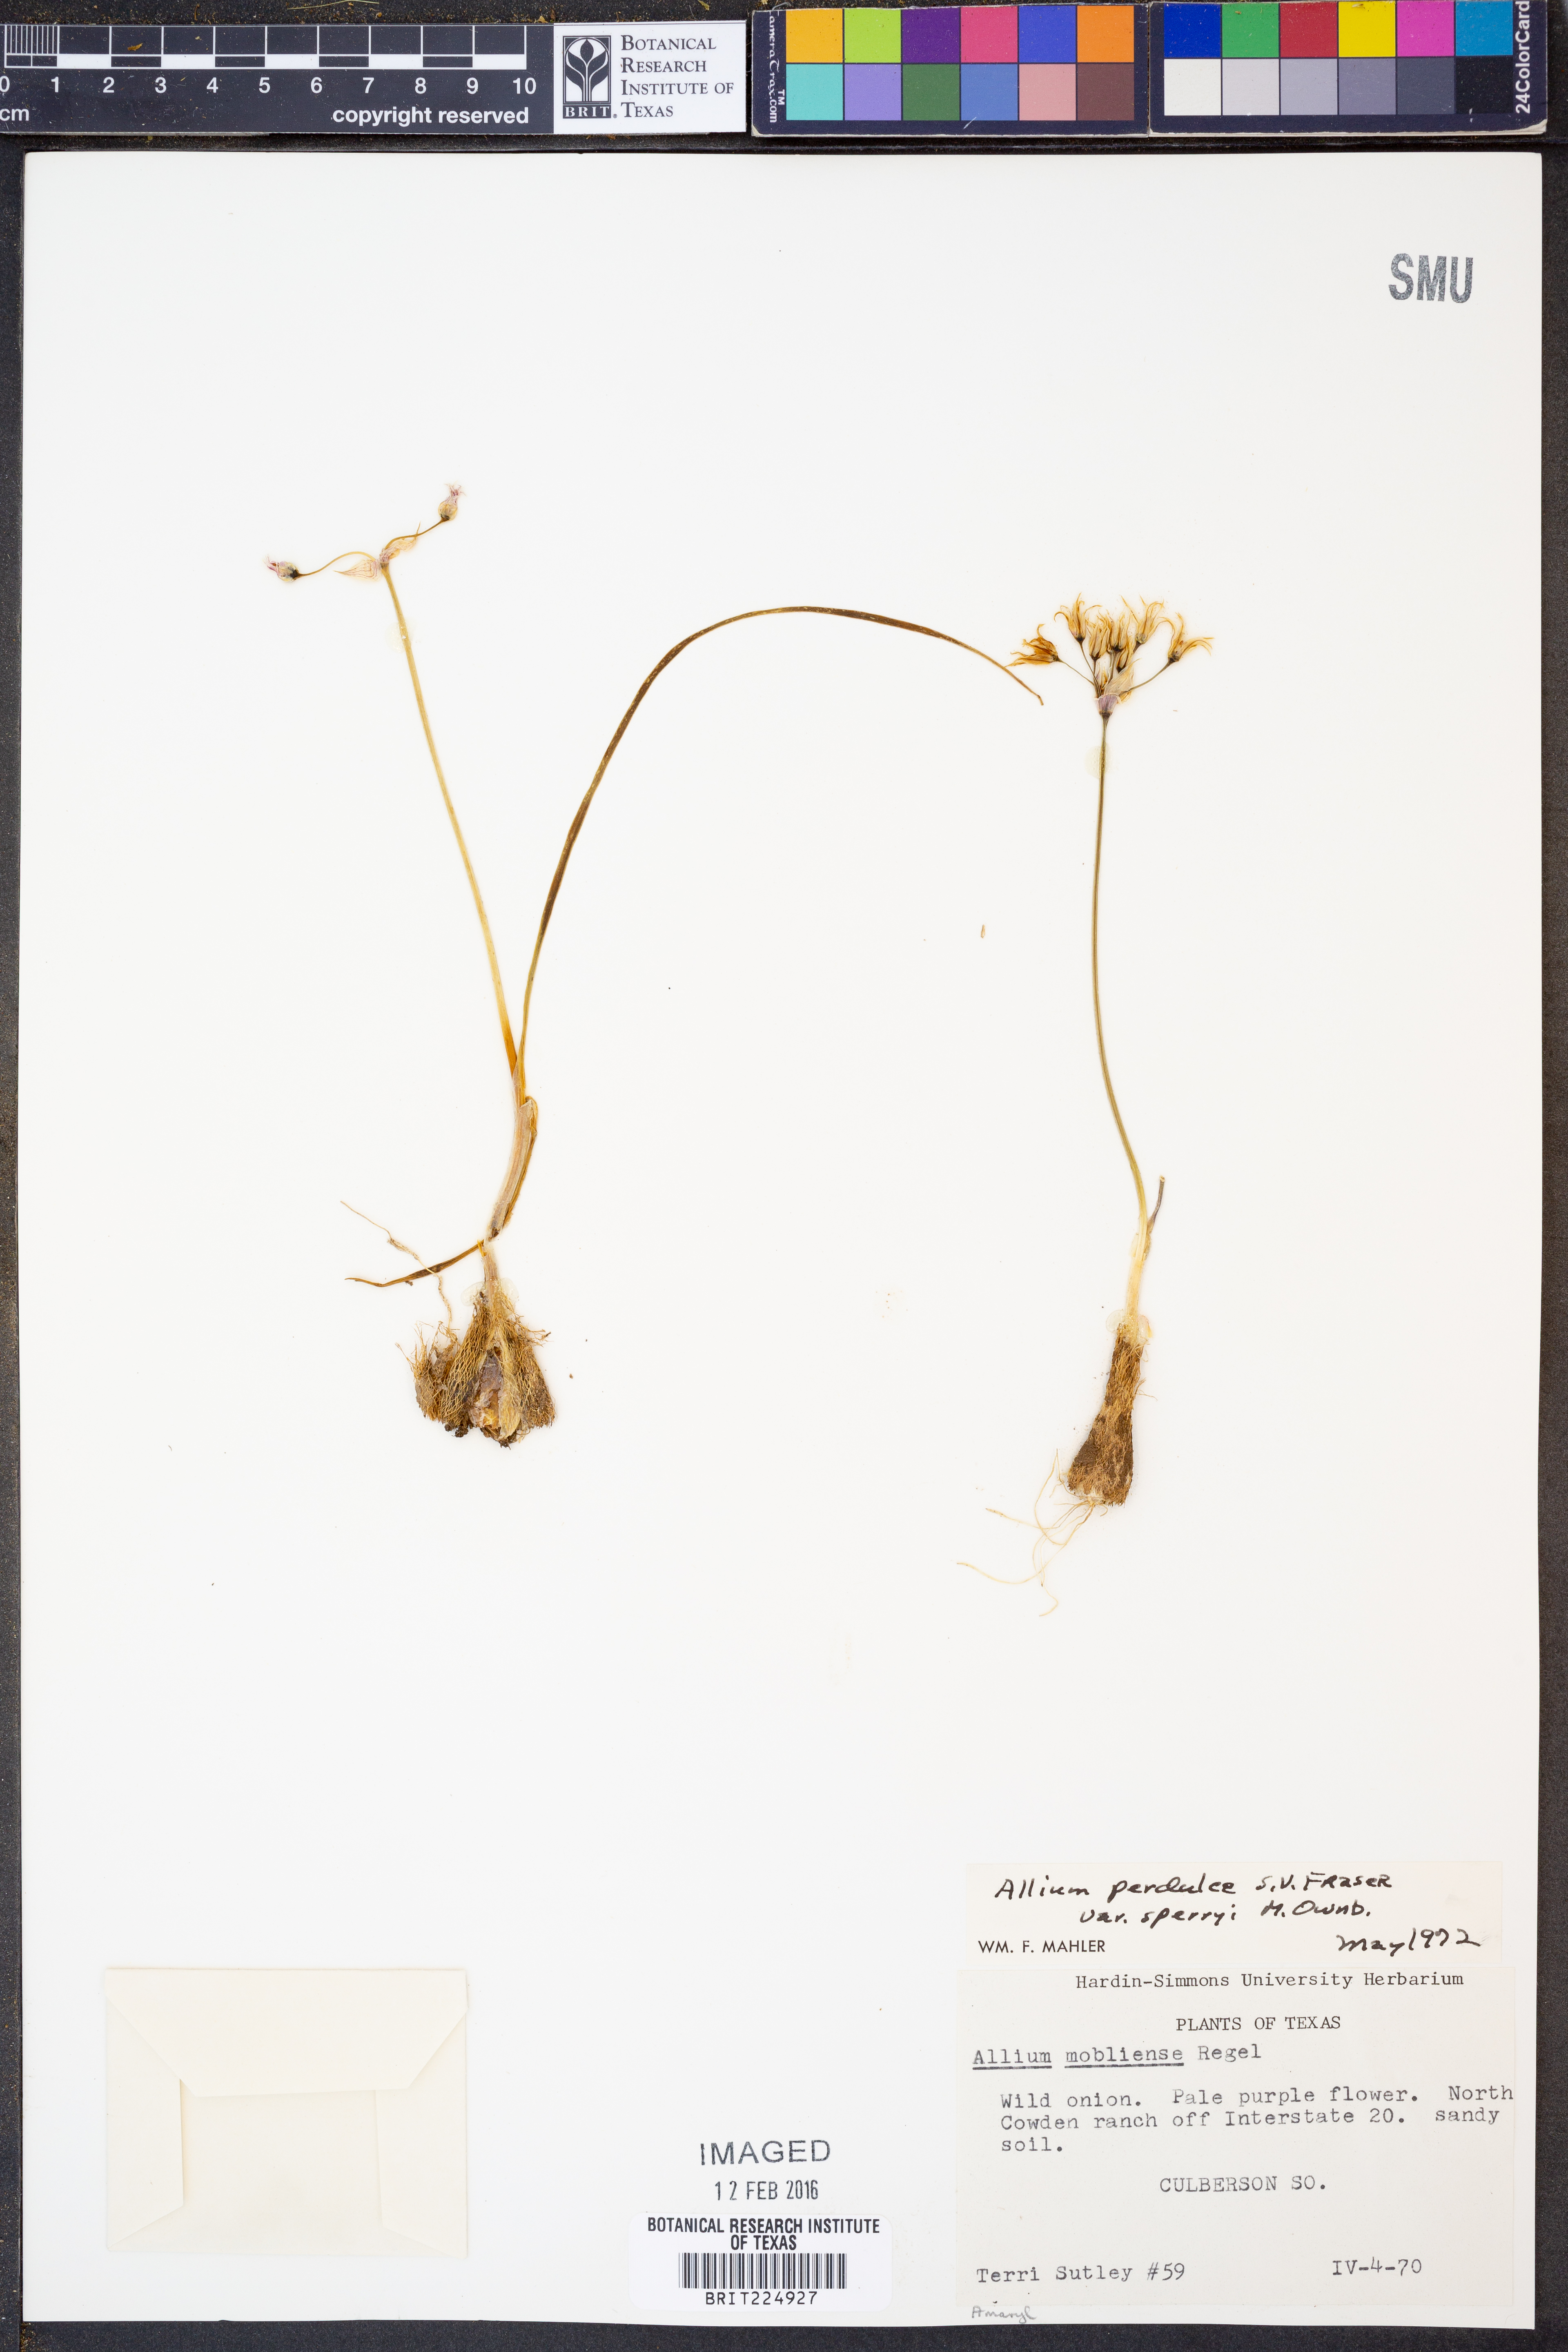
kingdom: Plantae
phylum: Tracheophyta
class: Liliopsida
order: Asparagales
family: Amaryllidaceae
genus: Allium
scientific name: Allium perdulce
